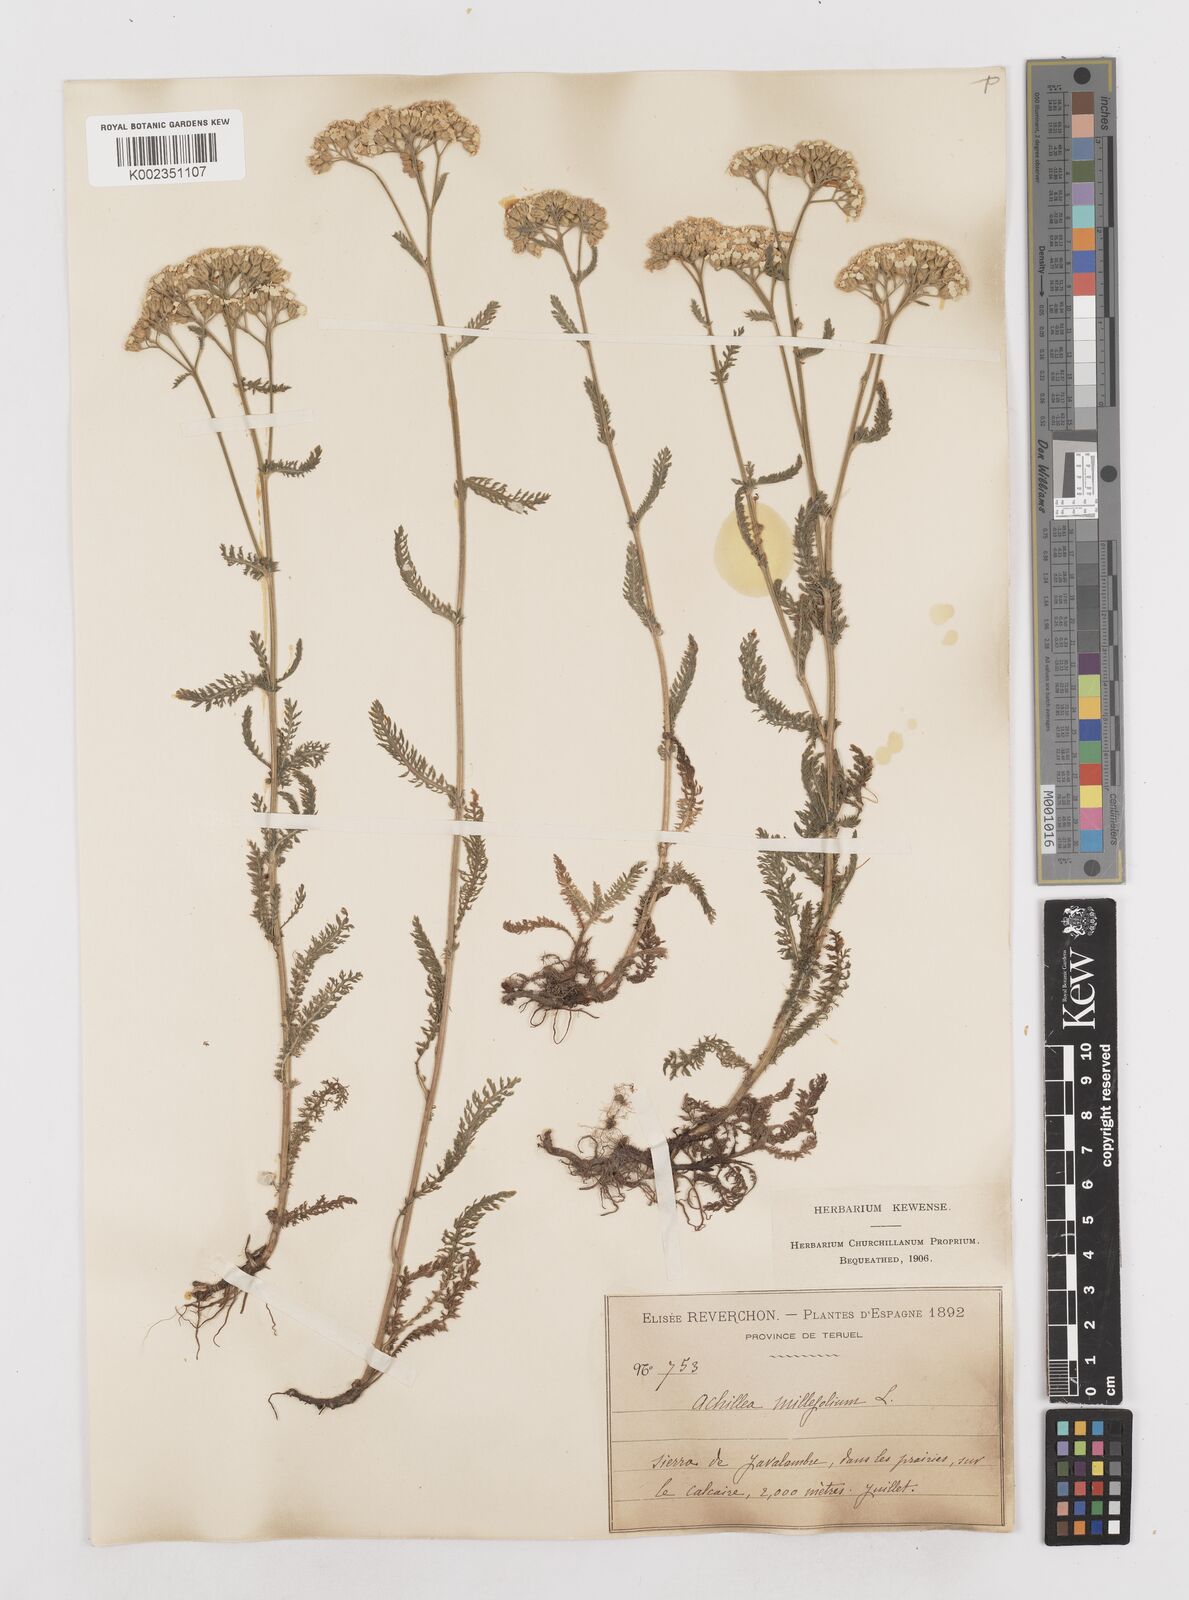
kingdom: Plantae
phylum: Tracheophyta
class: Magnoliopsida
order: Asterales
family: Asteraceae
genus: Achillea
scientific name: Achillea millefolium
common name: Yarrow
